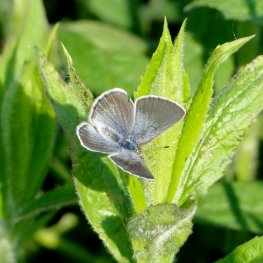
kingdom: Animalia
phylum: Arthropoda
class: Insecta
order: Lepidoptera
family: Lycaenidae
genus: Glaucopsyche
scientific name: Glaucopsyche lygdamus
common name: Silvery Blue
